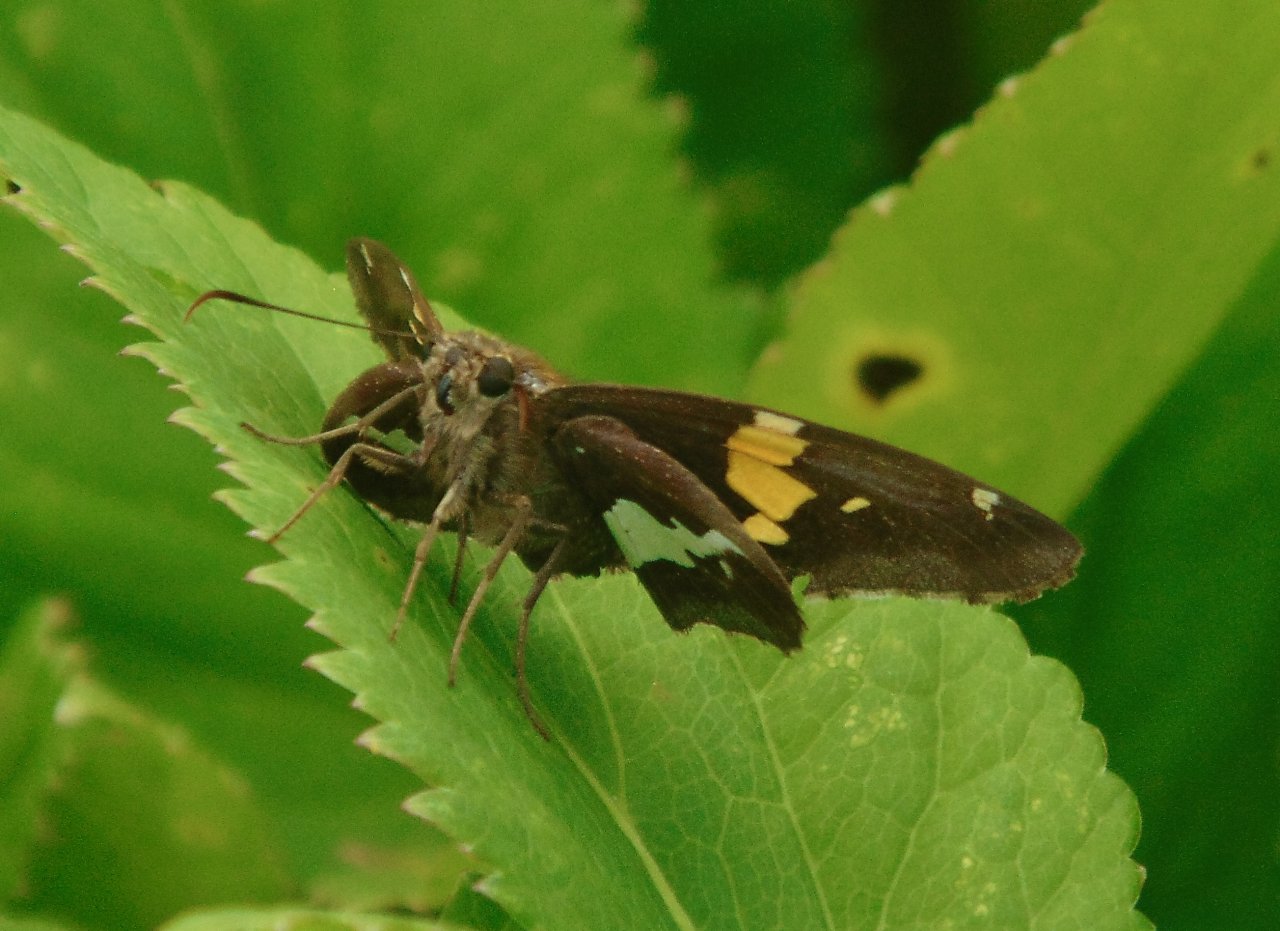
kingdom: Animalia
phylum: Arthropoda
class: Insecta
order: Lepidoptera
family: Hesperiidae
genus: Epargyreus
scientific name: Epargyreus clarus
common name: Silver-spotted Skipper
